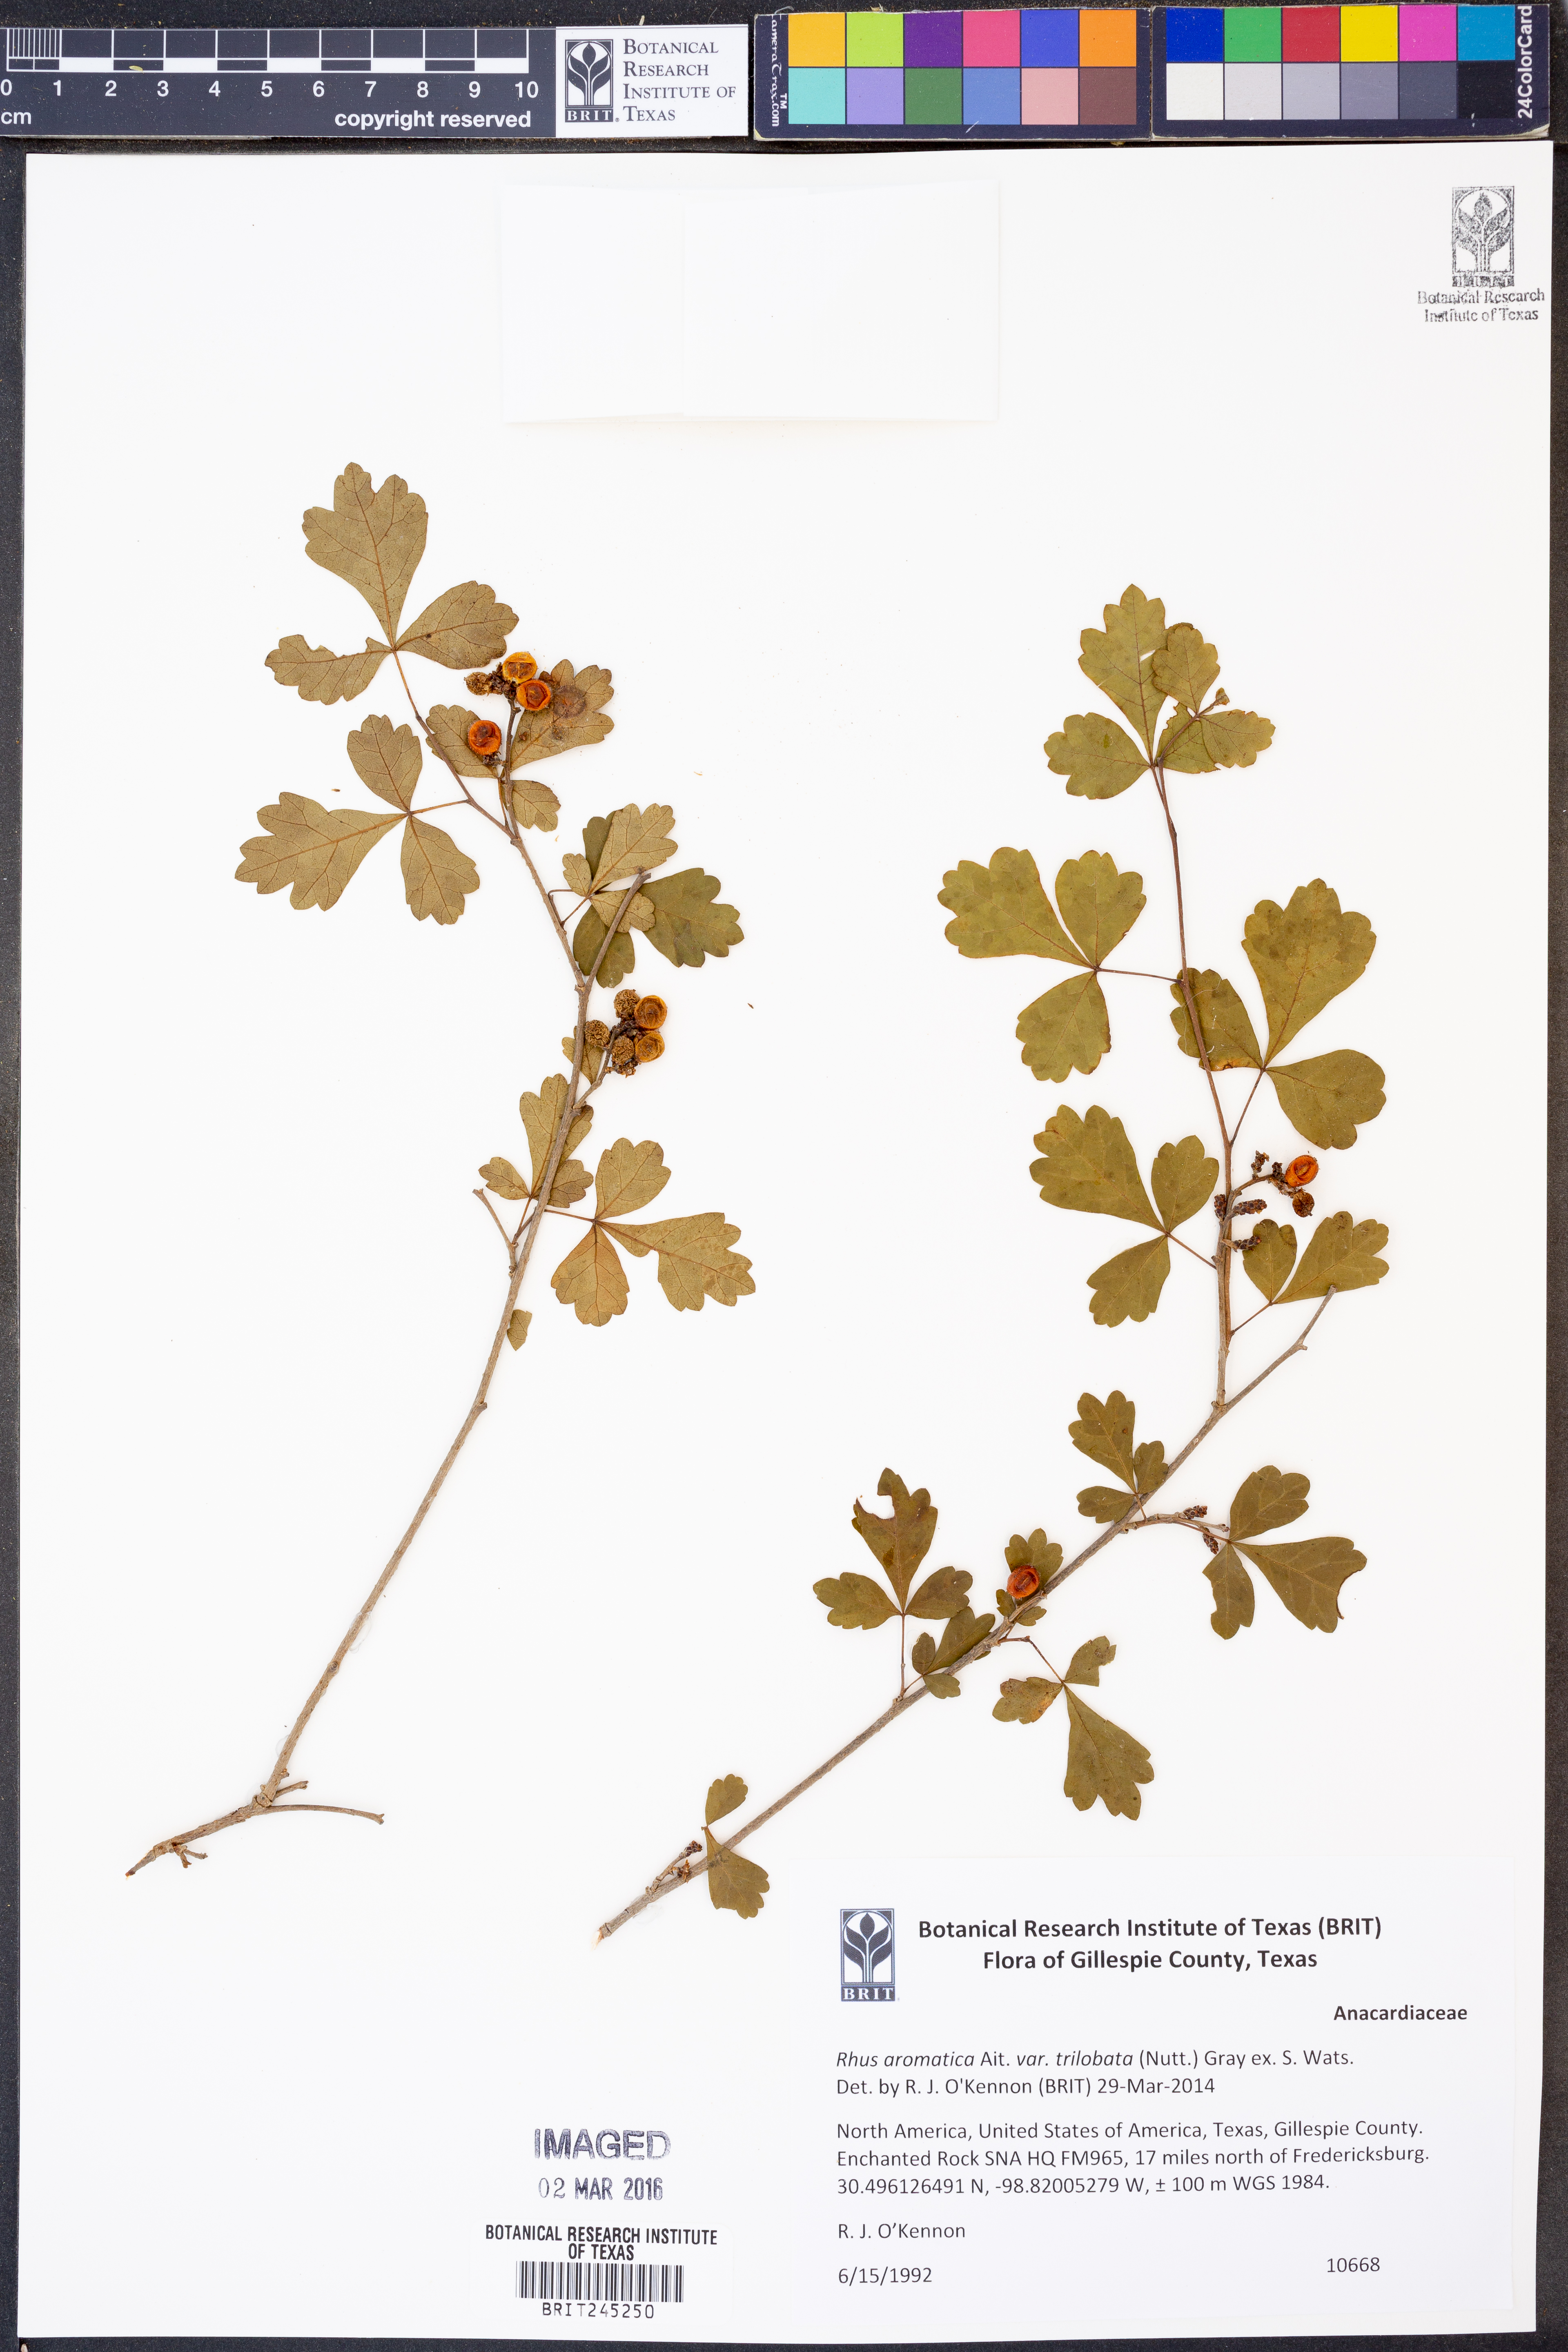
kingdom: Plantae
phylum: Tracheophyta
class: Magnoliopsida
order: Sapindales
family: Anacardiaceae
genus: Rhus
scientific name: Rhus trilobata
